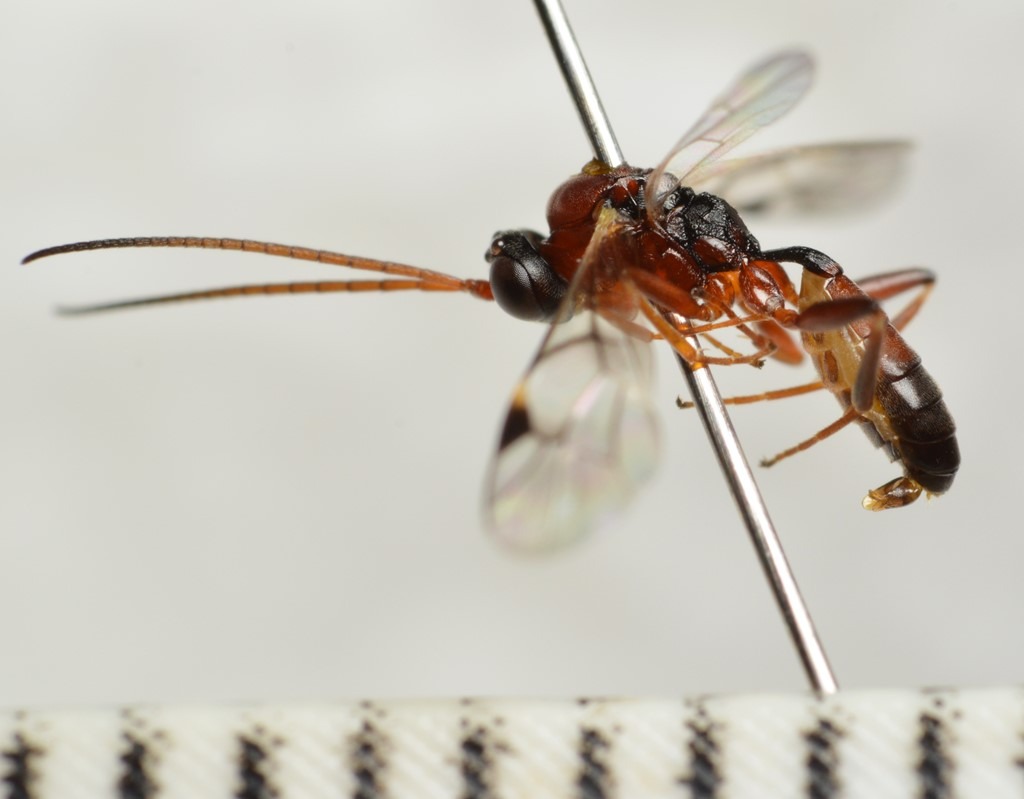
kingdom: Animalia
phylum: Arthropoda
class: Insecta
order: Hymenoptera
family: Ichneumonidae
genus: Gelis
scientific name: Gelis areator
